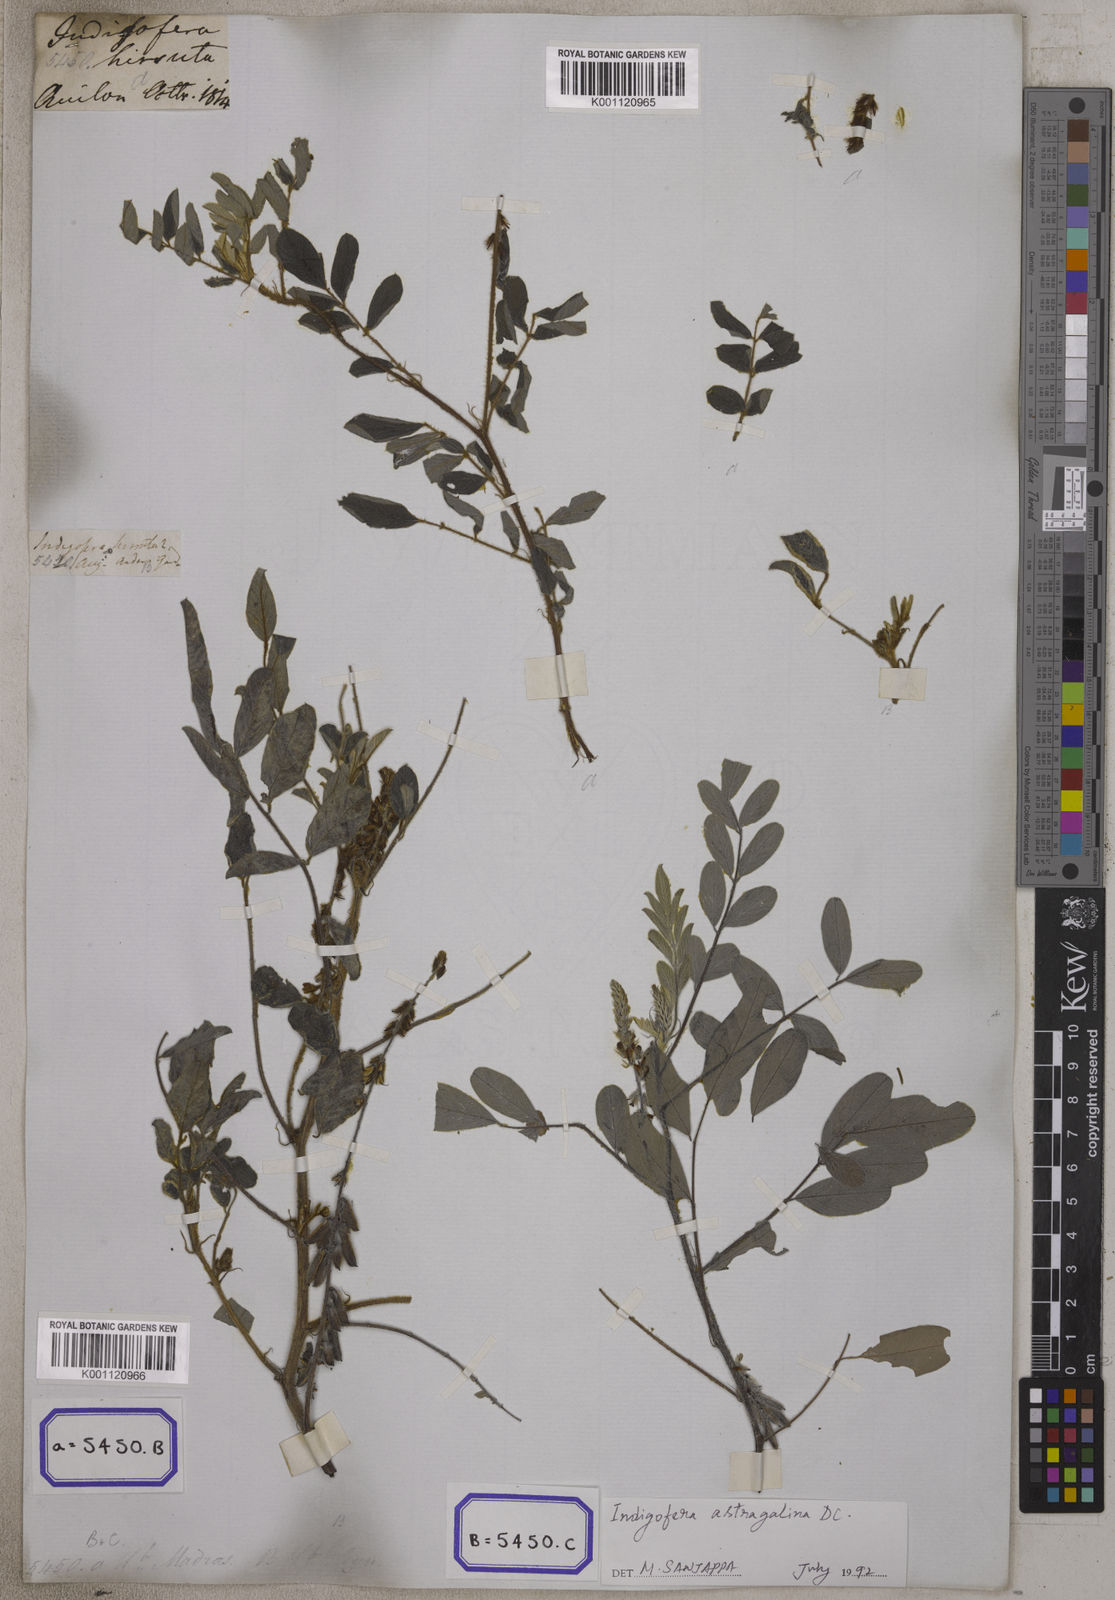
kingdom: Plantae
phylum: Tracheophyta
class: Magnoliopsida
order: Fabales
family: Fabaceae
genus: Indigofera
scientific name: Indigofera hirsuta
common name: Hairy indigo
